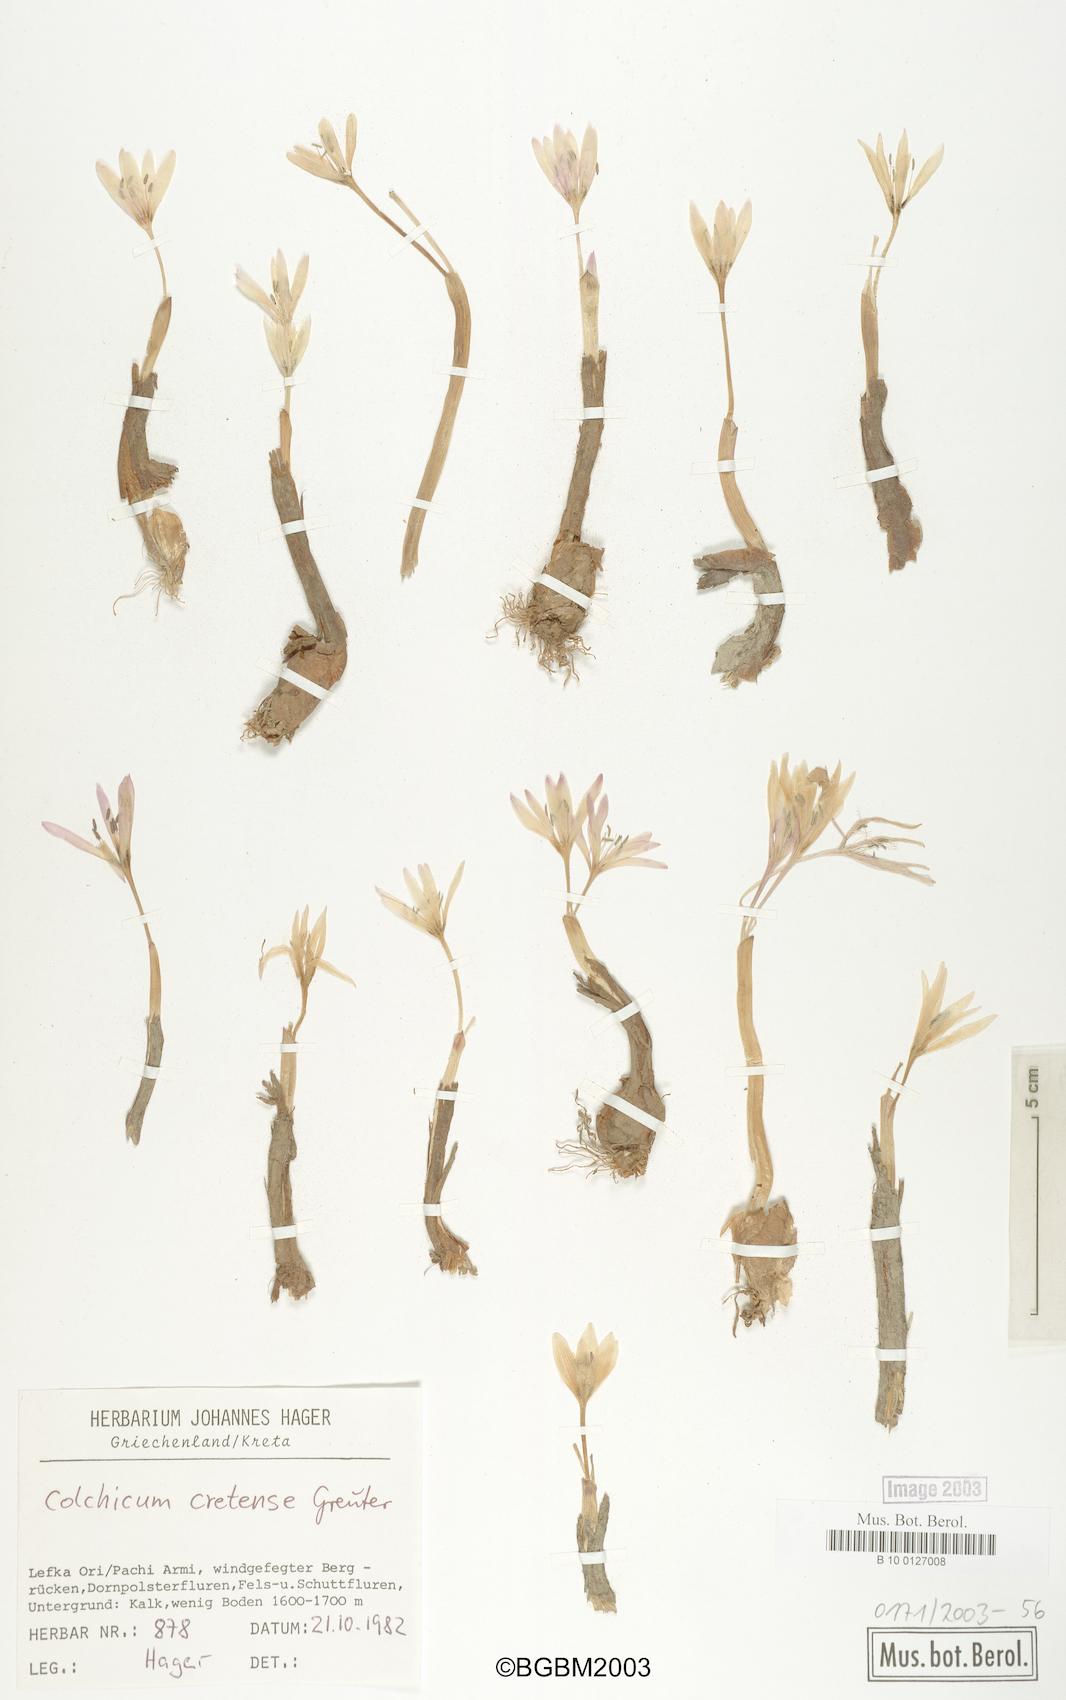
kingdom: Plantae
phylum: Tracheophyta
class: Liliopsida
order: Liliales
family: Colchicaceae
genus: Colchicum
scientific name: Colchicum cretense
